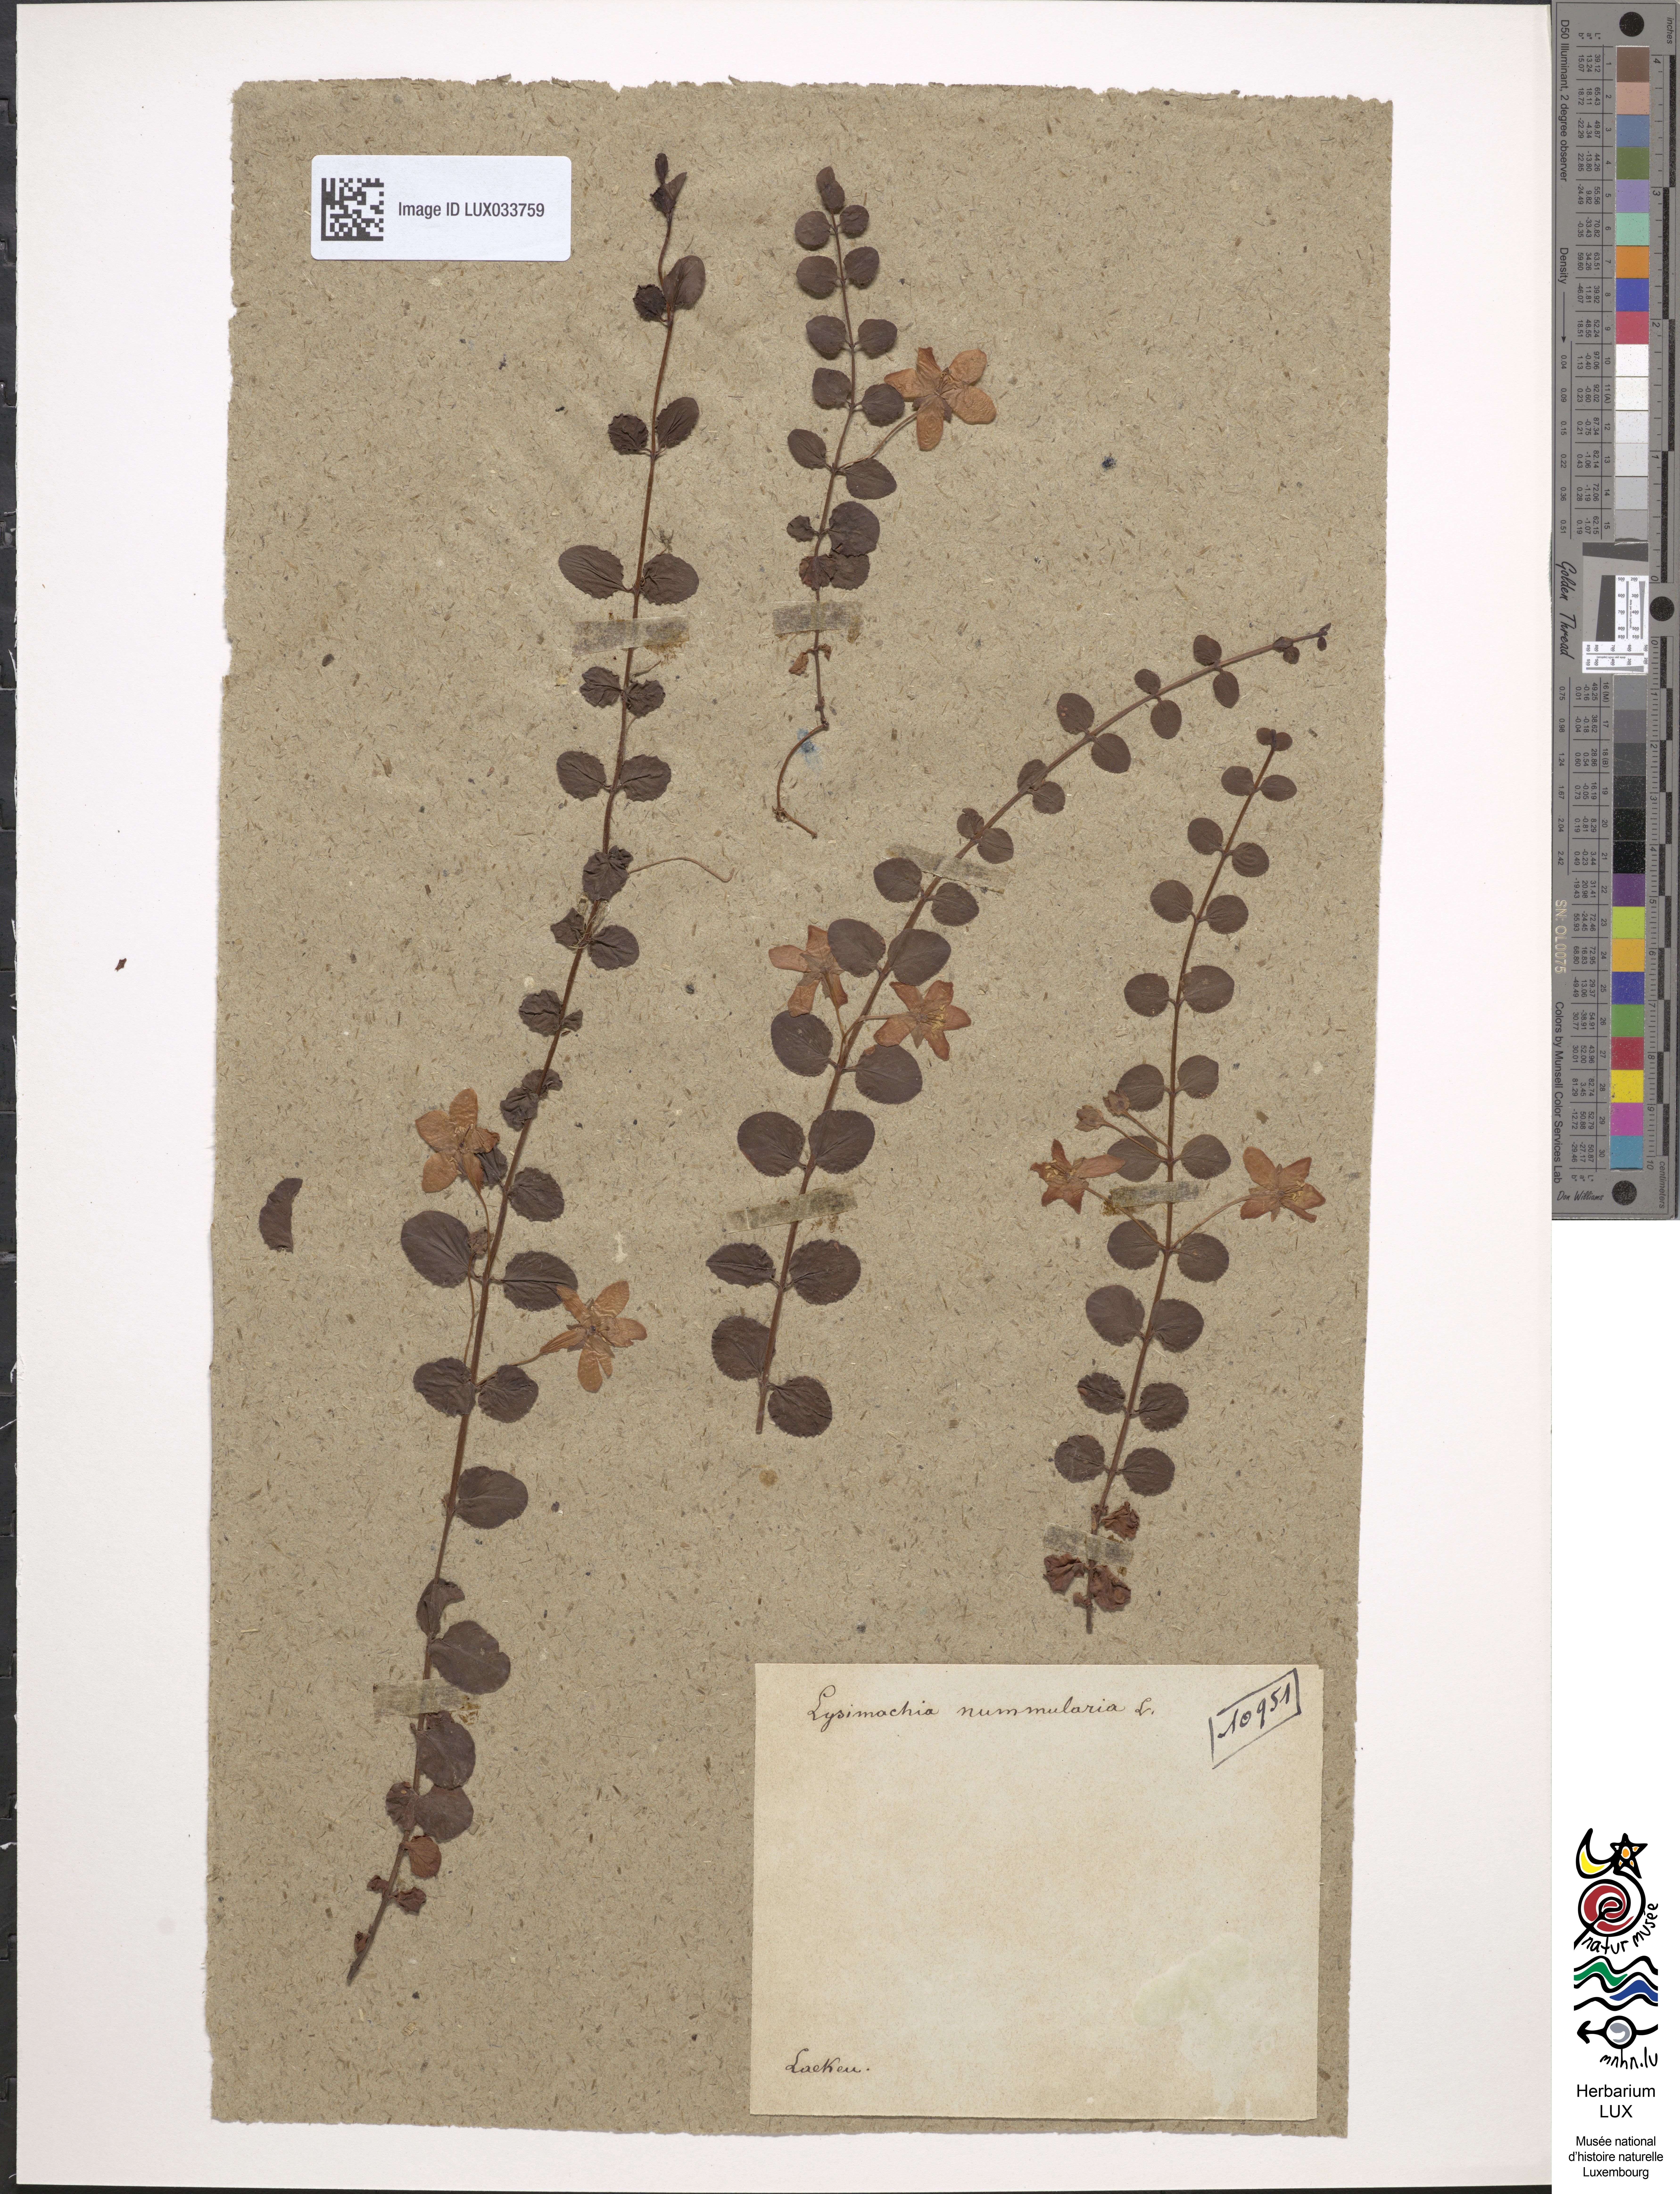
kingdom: Plantae
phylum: Tracheophyta
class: Magnoliopsida
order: Ericales
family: Primulaceae
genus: Lysimachia
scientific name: Lysimachia nummularia
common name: Moneywort
